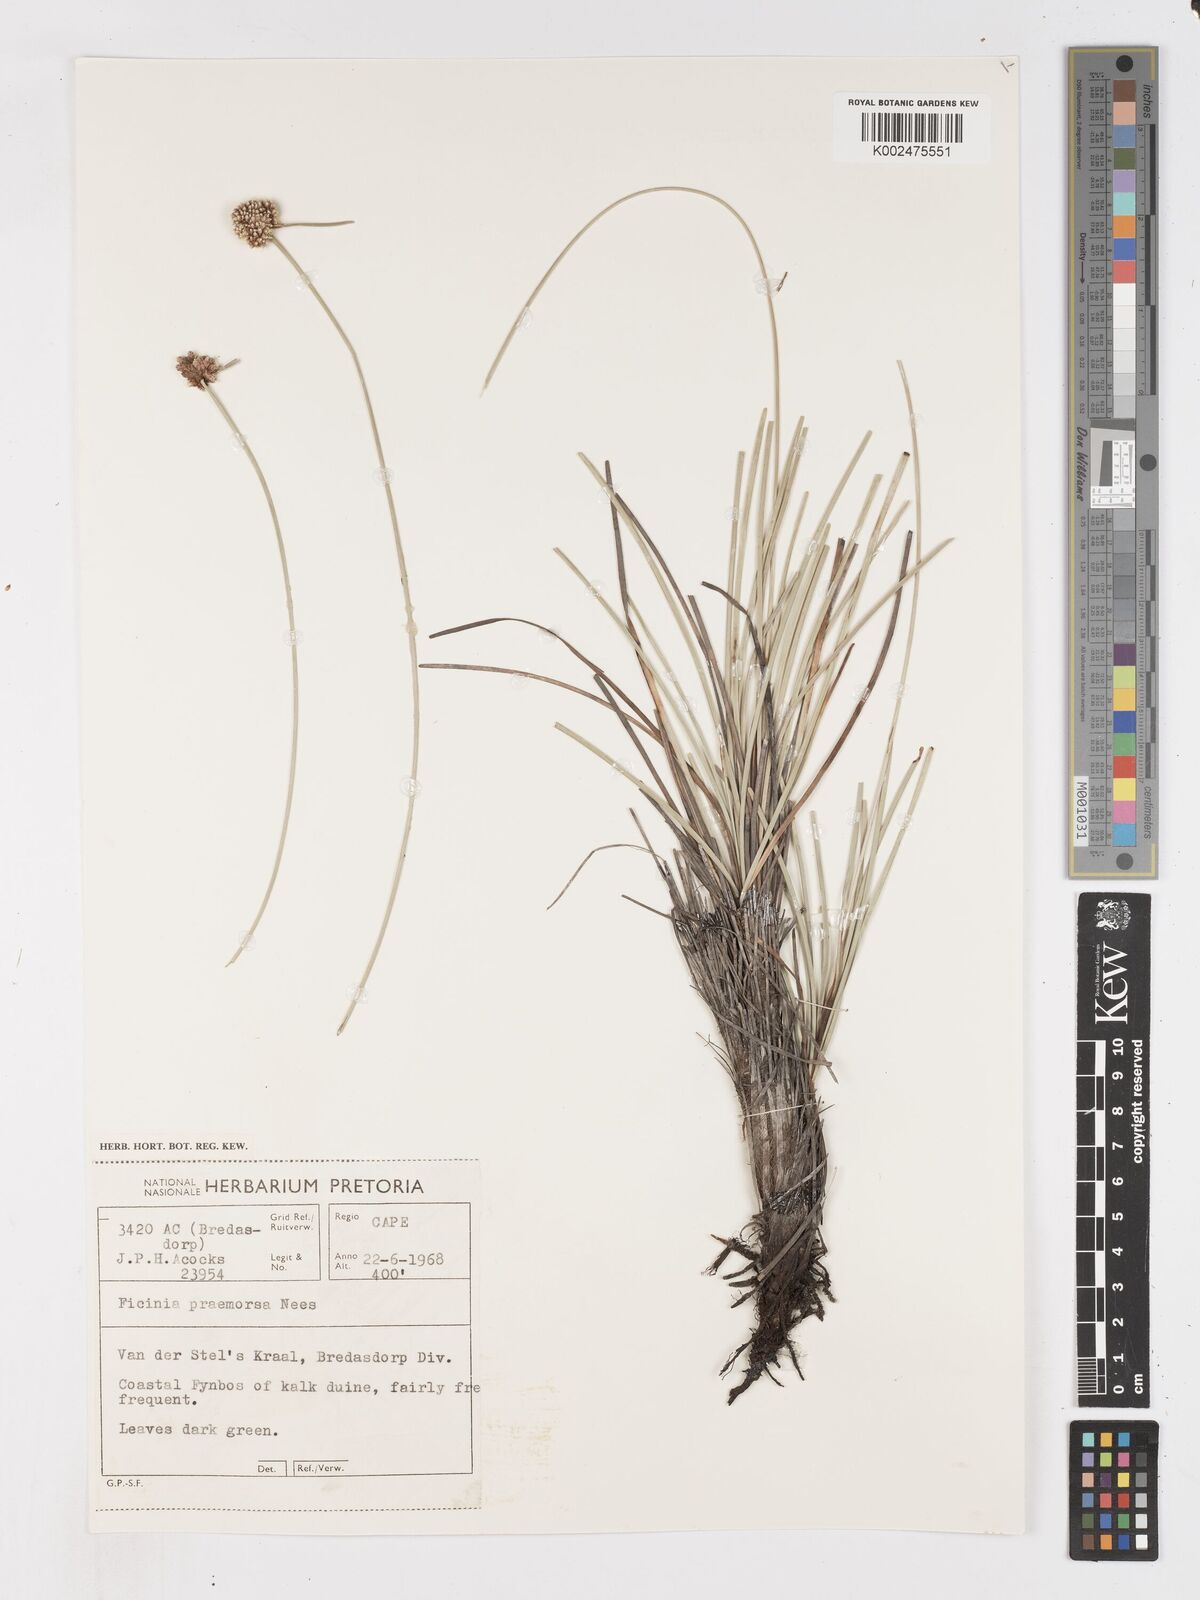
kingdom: Plantae
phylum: Tracheophyta
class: Liliopsida
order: Poales
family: Cyperaceae
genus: Ficinia
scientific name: Ficinia praemorsa
